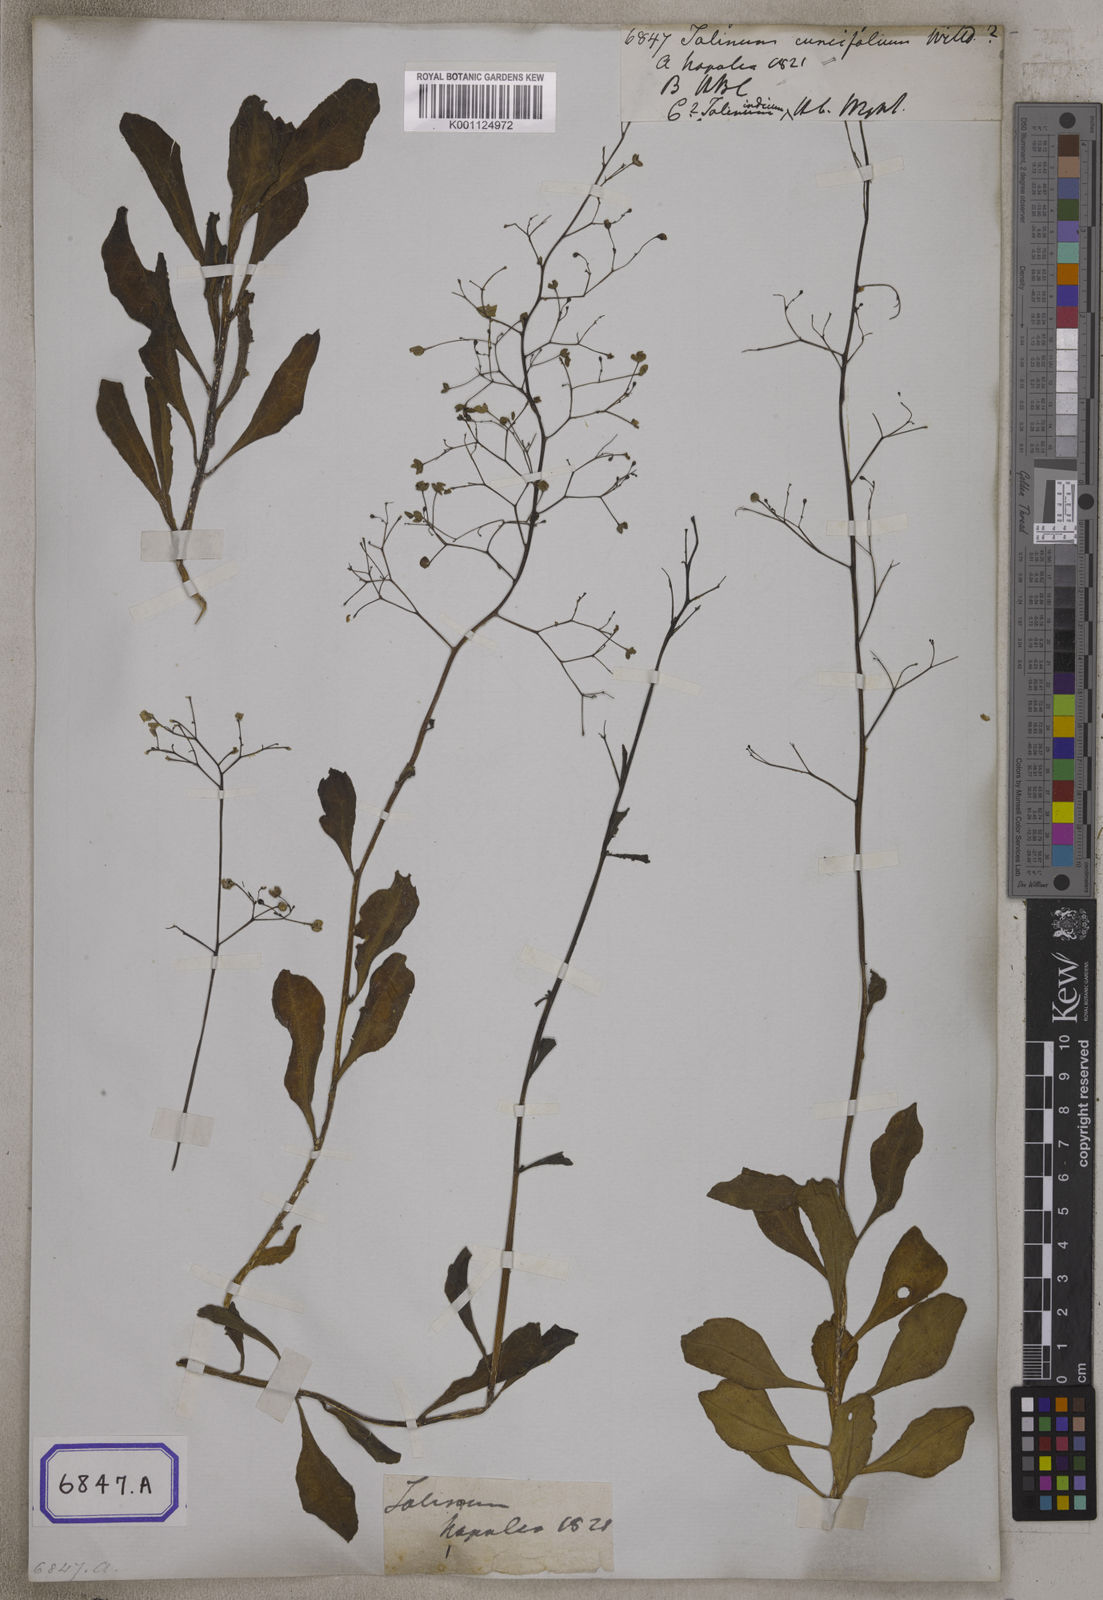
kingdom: Plantae
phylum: Tracheophyta
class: Magnoliopsida
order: Caryophyllales
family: Talinaceae
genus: Talinum
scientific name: Talinum portulacifolium
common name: Flameflower
